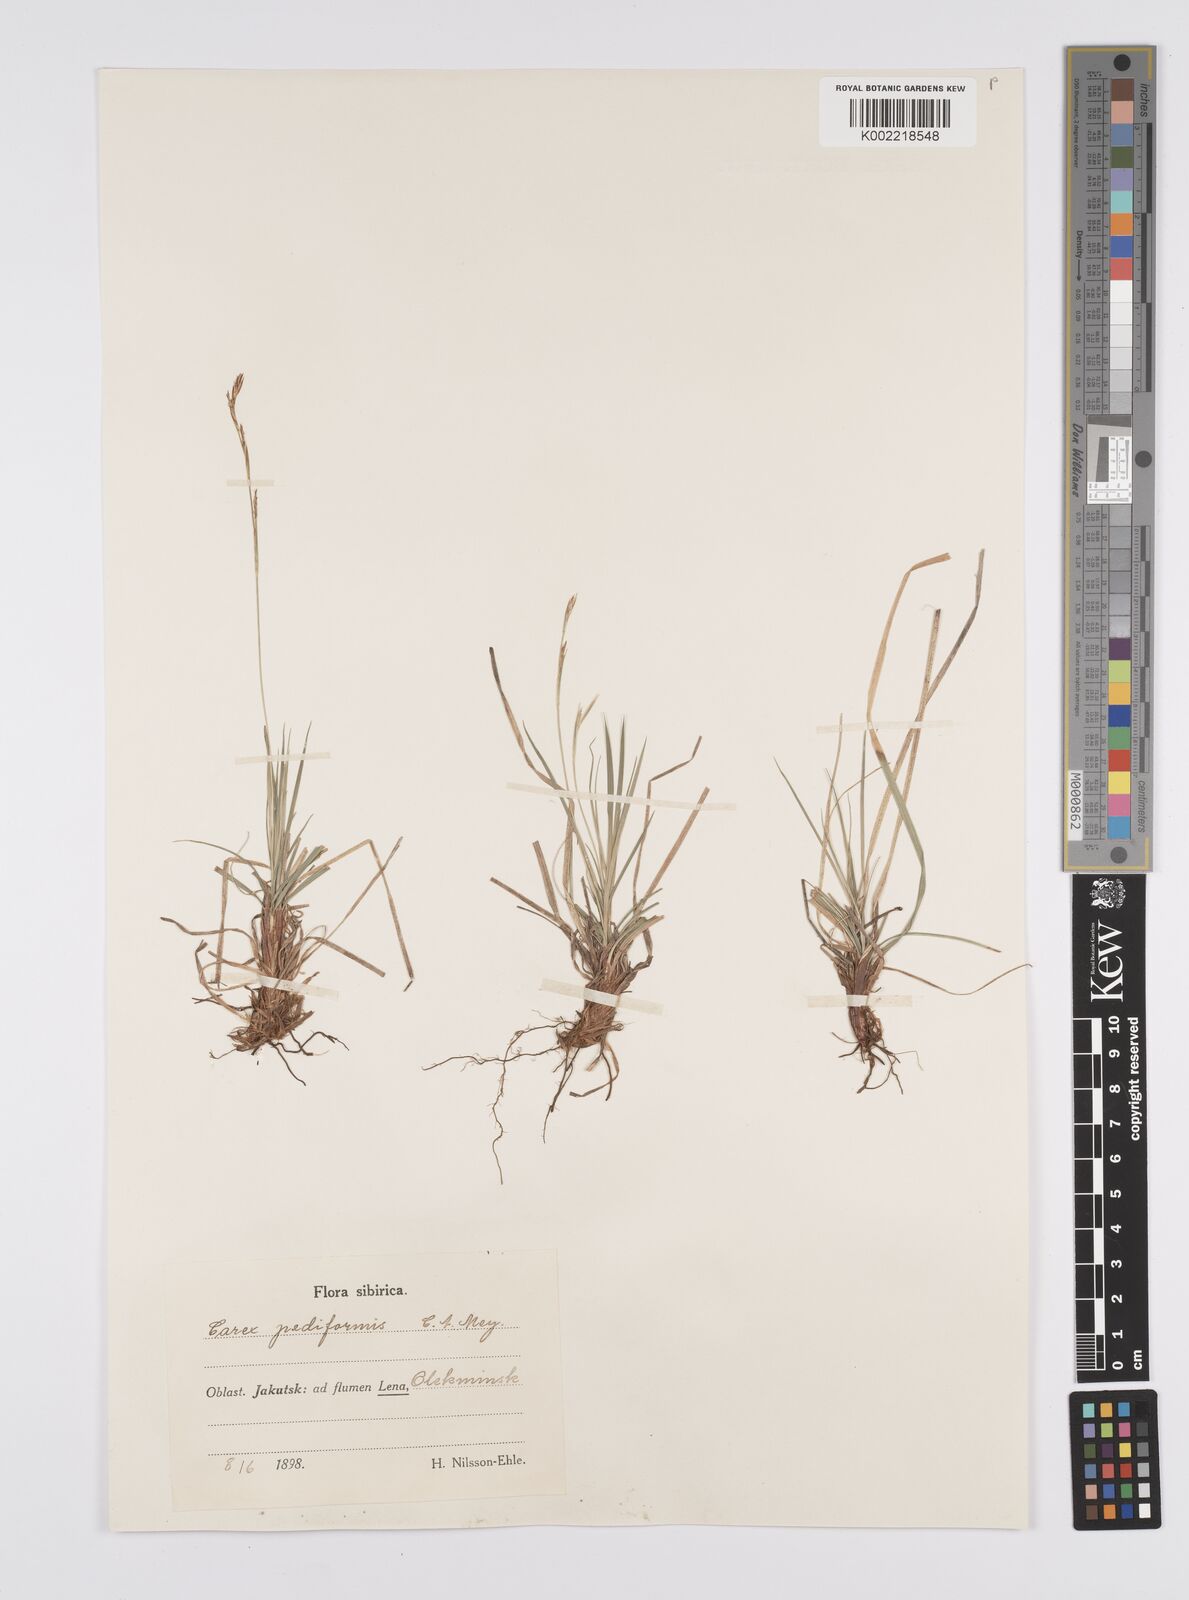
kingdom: Plantae
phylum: Tracheophyta
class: Liliopsida
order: Poales
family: Cyperaceae
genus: Carex
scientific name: Carex pediformis
